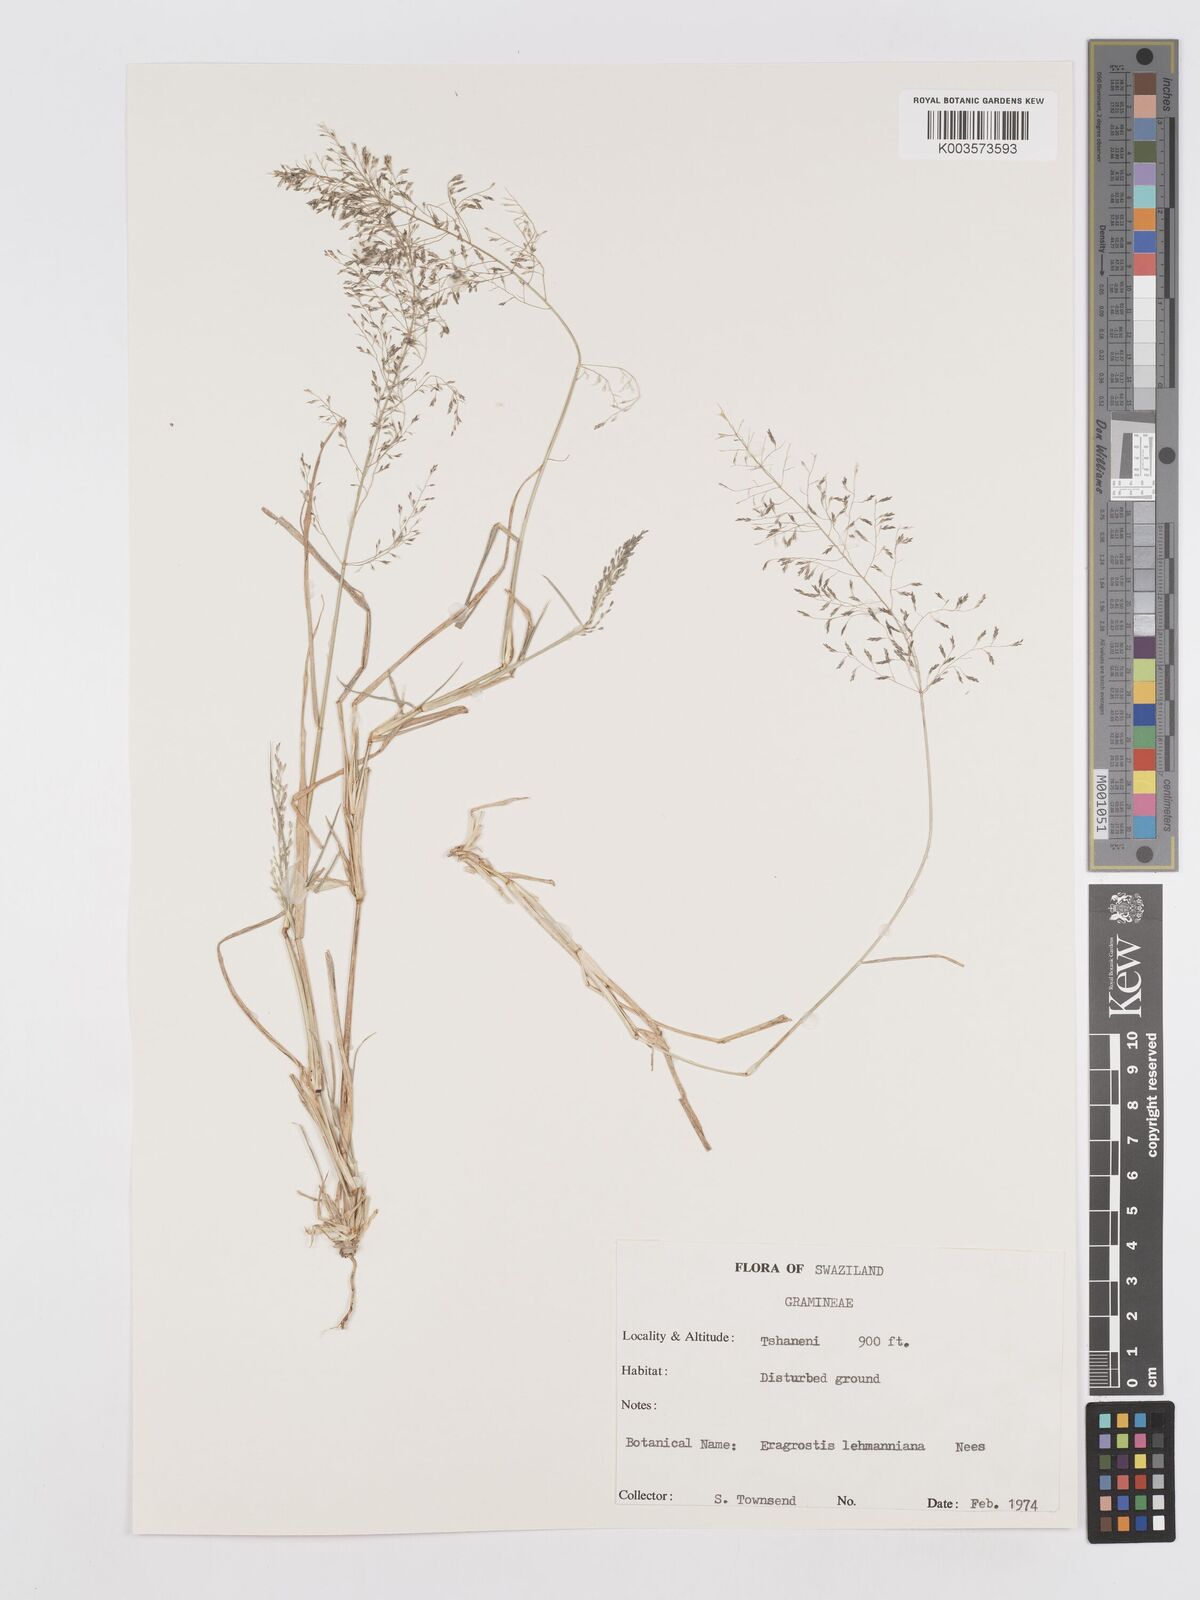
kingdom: Plantae
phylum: Tracheophyta
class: Liliopsida
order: Poales
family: Poaceae
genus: Eragrostis
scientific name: Eragrostis lehmanniana
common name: Lehmann lovegrass
